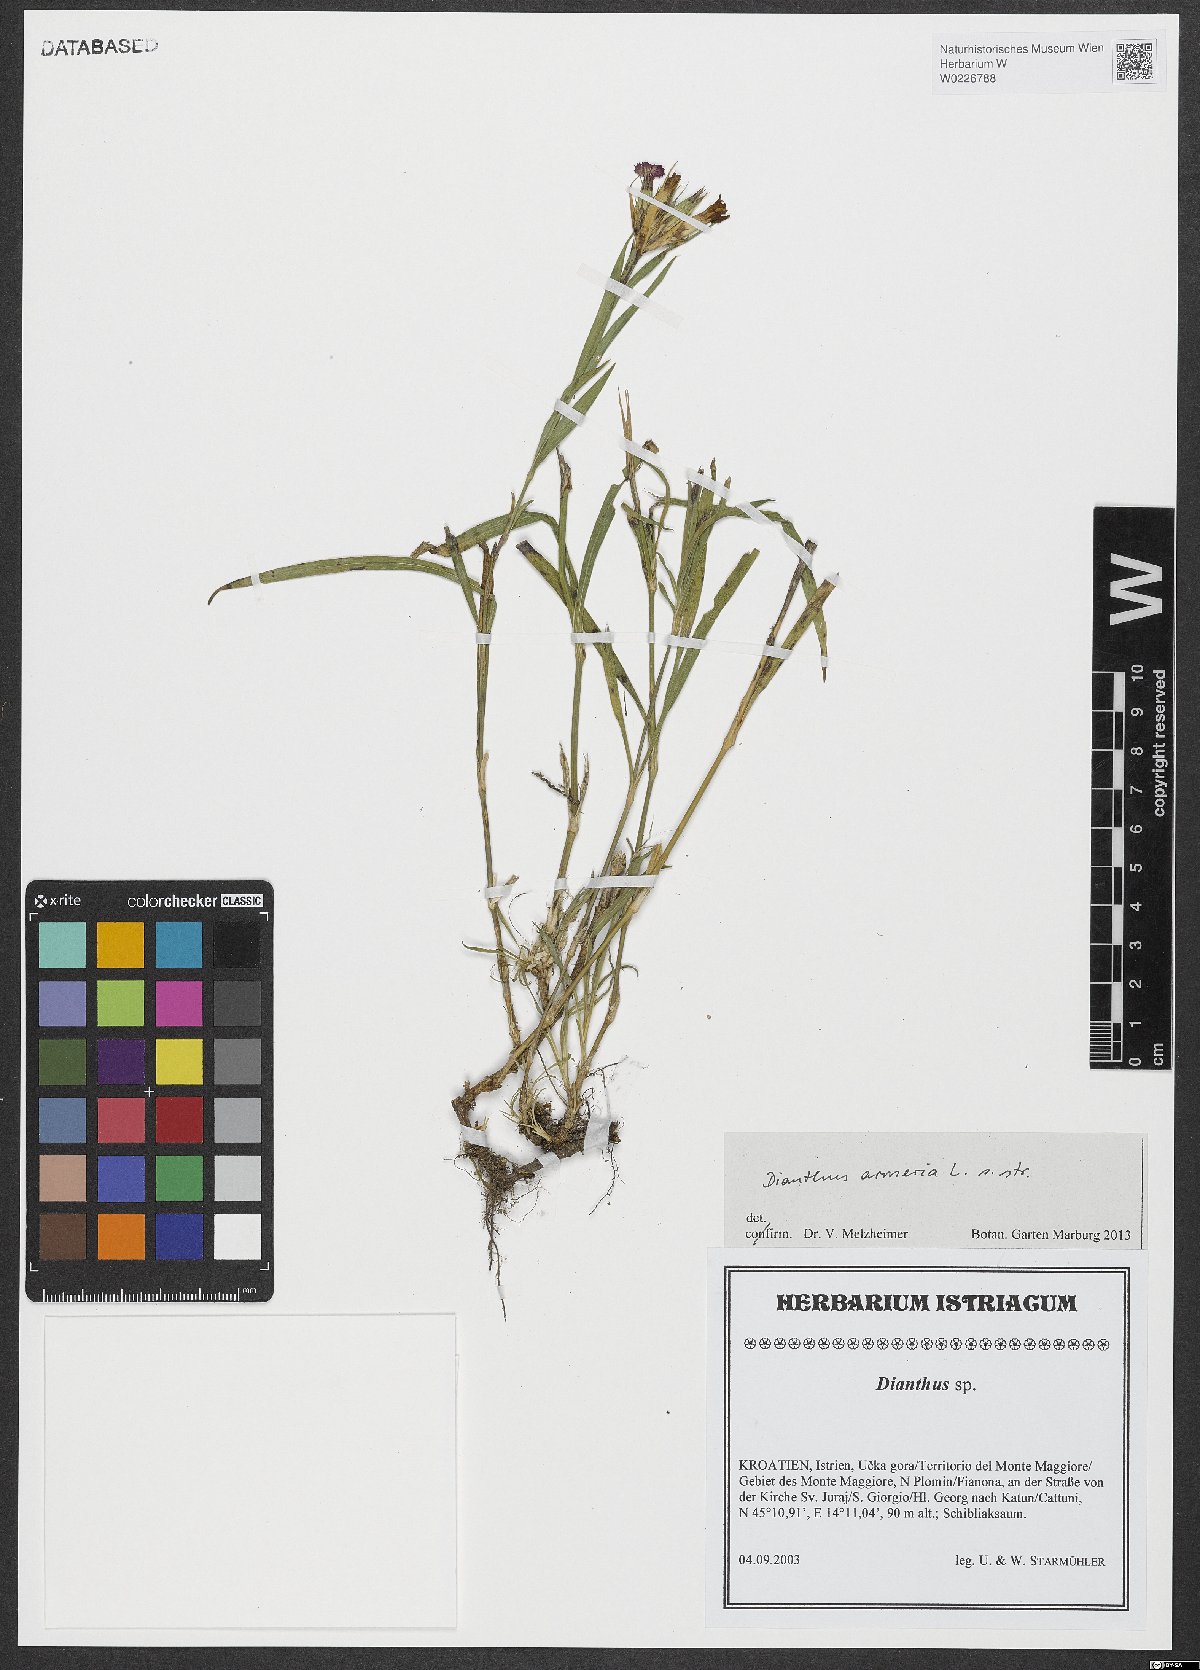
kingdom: Plantae
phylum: Tracheophyta
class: Magnoliopsida
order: Caryophyllales
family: Caryophyllaceae
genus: Dianthus
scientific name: Dianthus armeria
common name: Deptford pink
